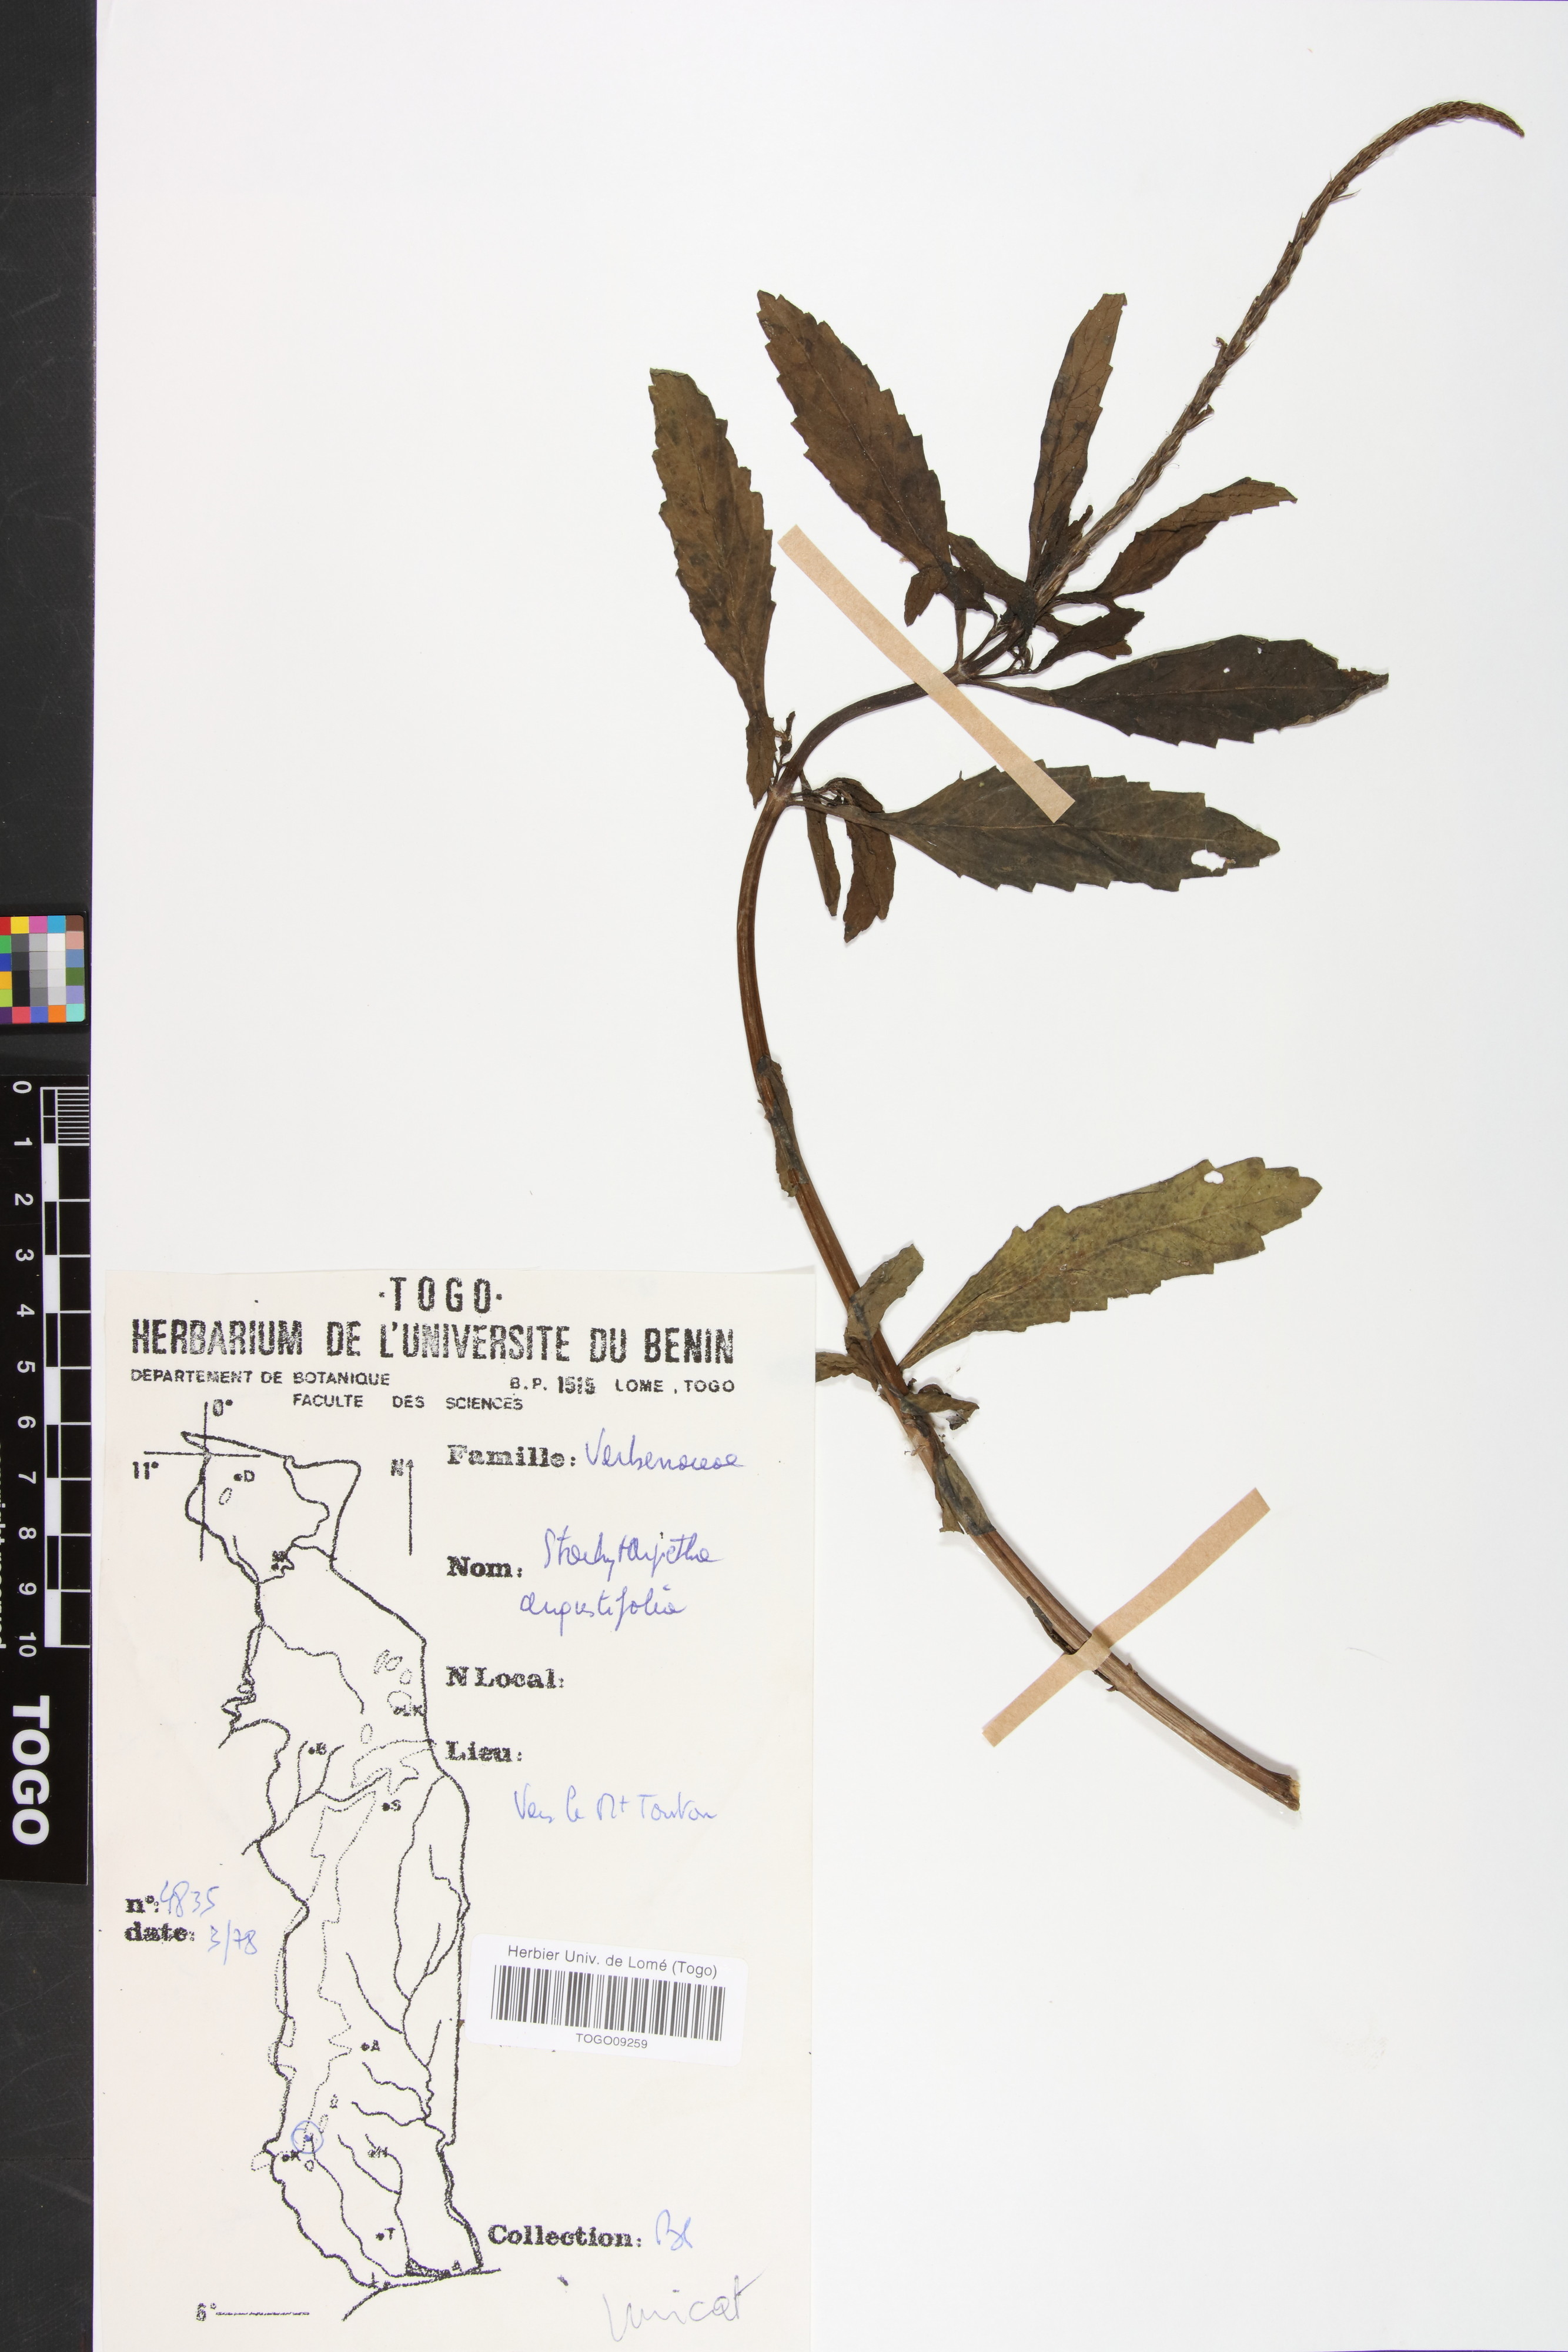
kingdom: Plantae
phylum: Tracheophyta
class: Magnoliopsida
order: Lamiales
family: Verbenaceae
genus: Stachytarpheta
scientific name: Stachytarpheta indica
